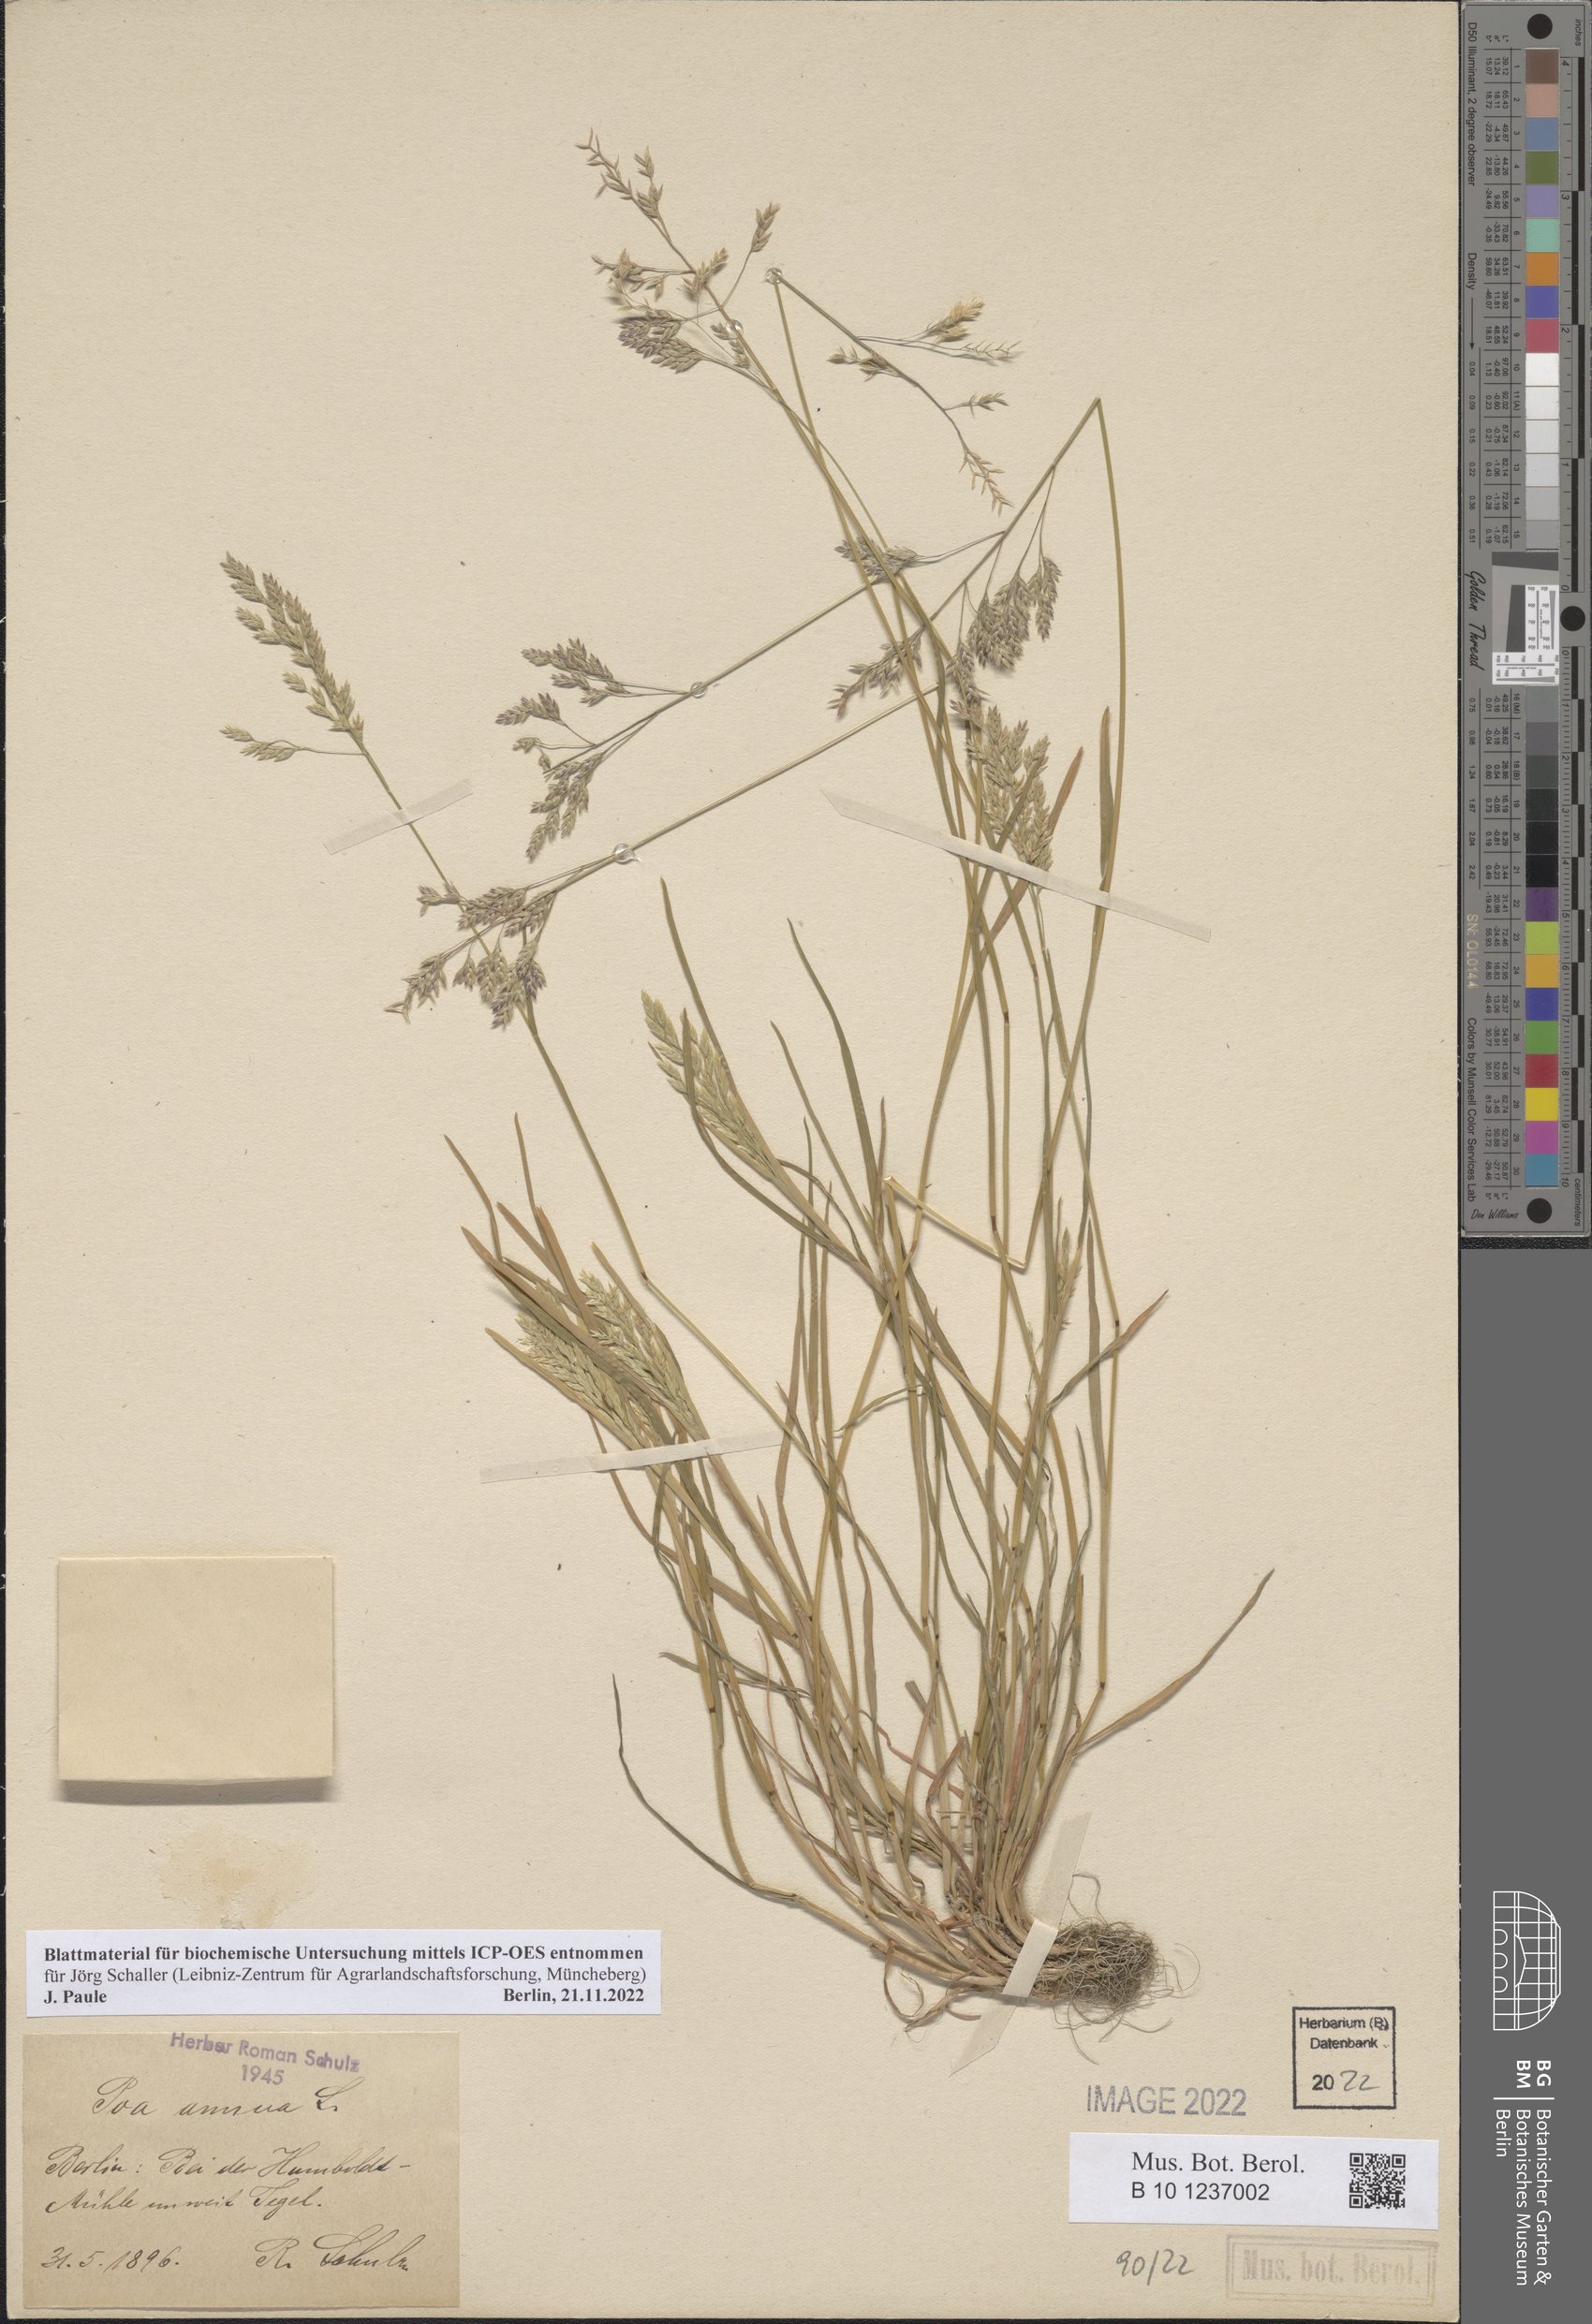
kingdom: Plantae
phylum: Tracheophyta
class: Liliopsida
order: Poales
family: Poaceae
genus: Poa
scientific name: Poa annua
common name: Annual bluegrass
